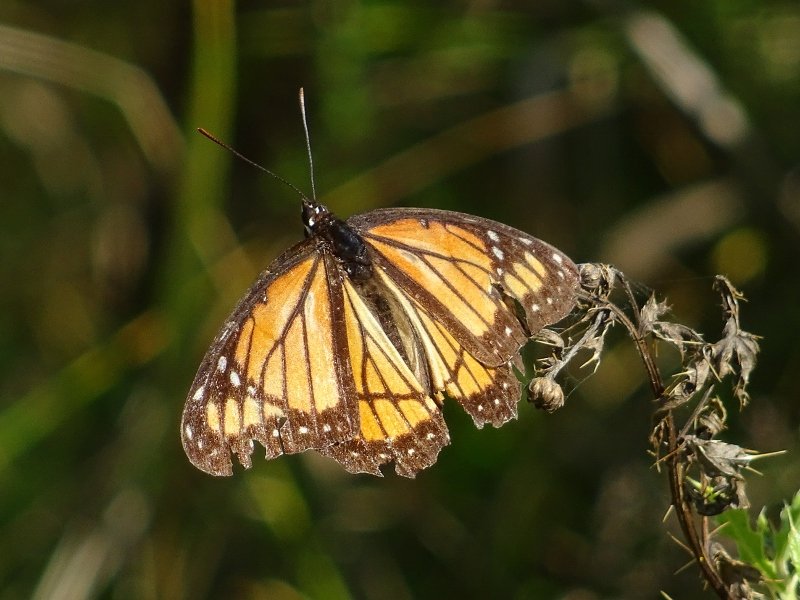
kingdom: Animalia
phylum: Arthropoda
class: Insecta
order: Lepidoptera
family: Nymphalidae
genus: Limenitis
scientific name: Limenitis archippus
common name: Viceroy
